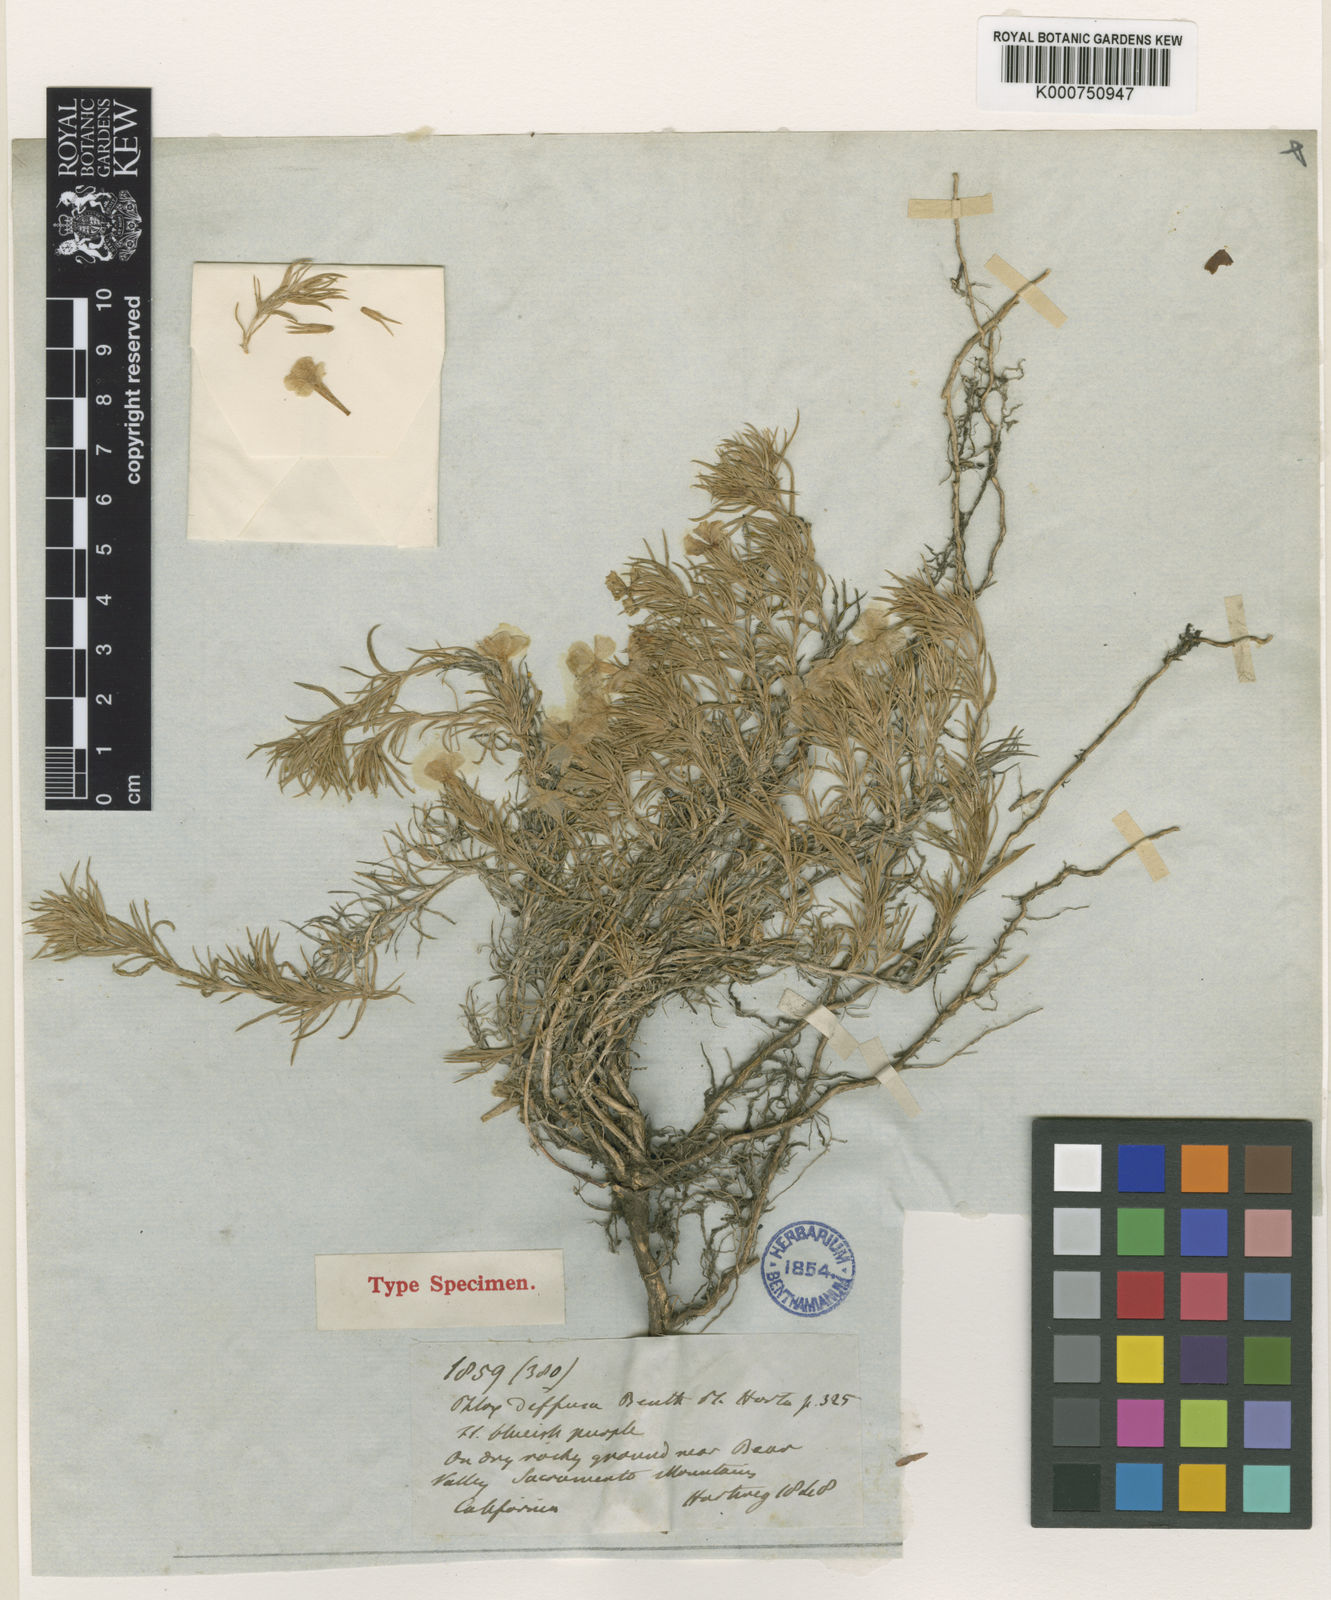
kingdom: Plantae
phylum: Tracheophyta
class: Magnoliopsida
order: Ericales
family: Polemoniaceae
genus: Phlox
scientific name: Phlox douglasii
